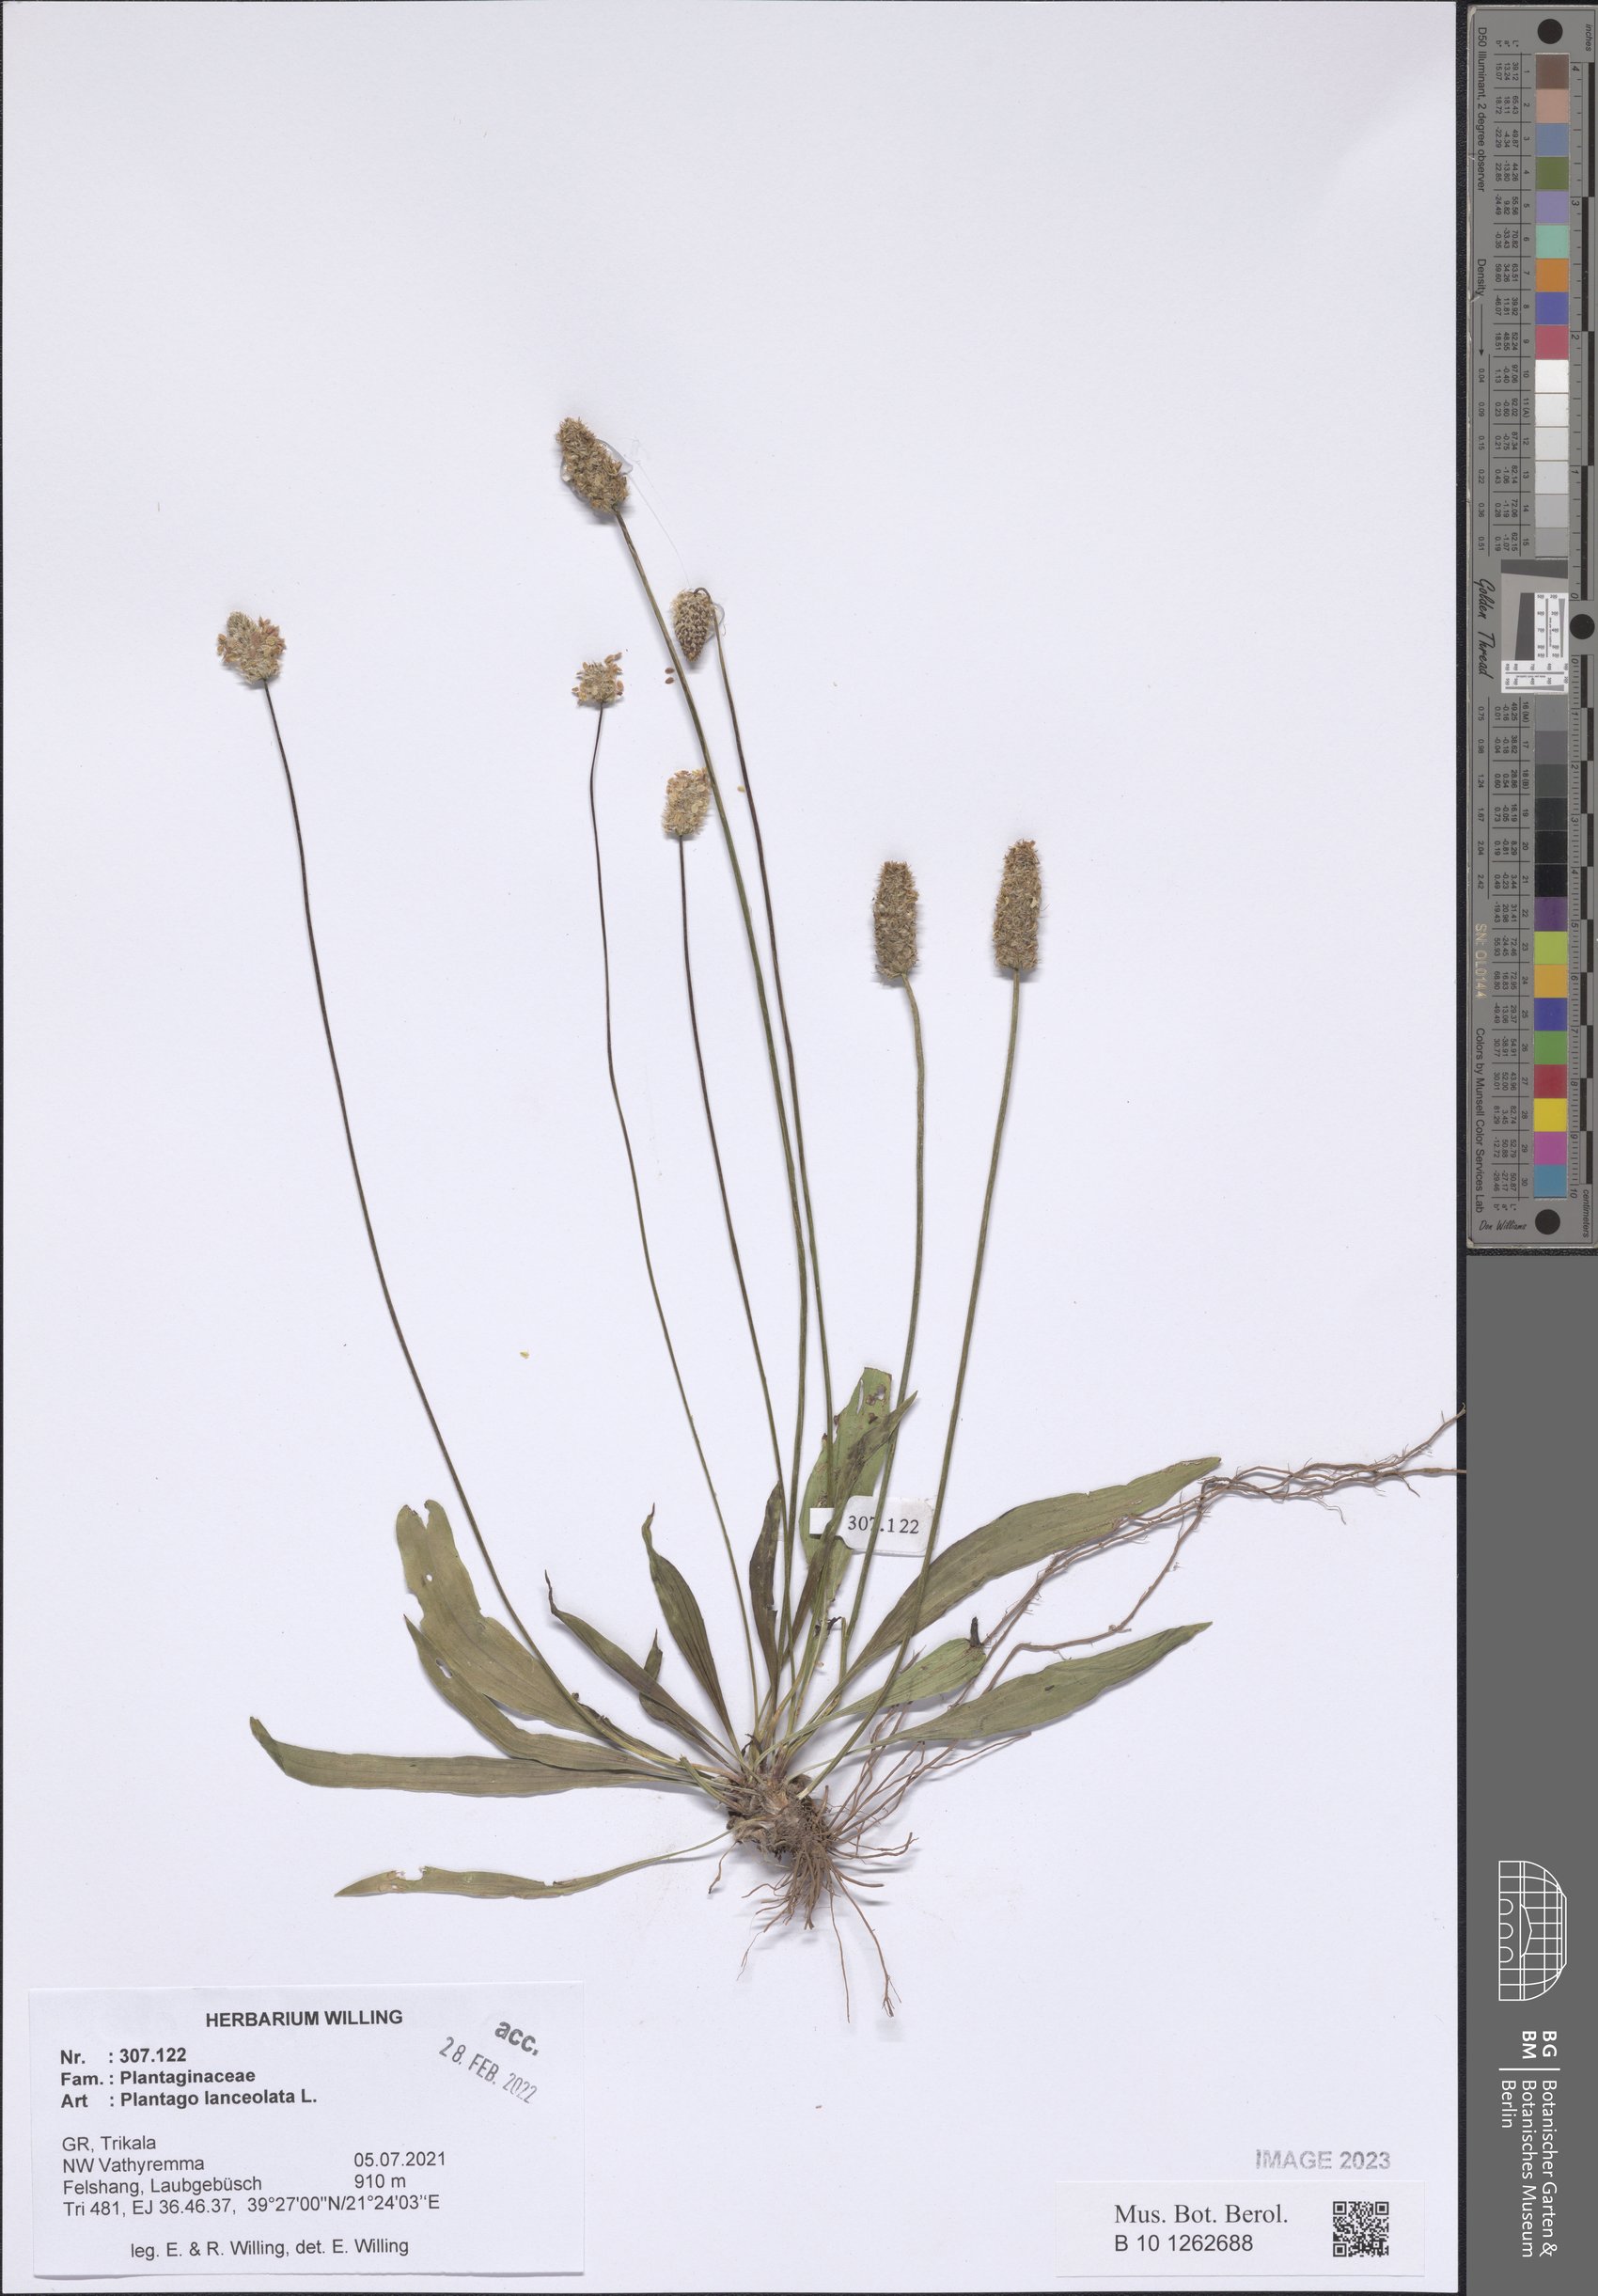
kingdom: Plantae
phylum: Tracheophyta
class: Magnoliopsida
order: Lamiales
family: Plantaginaceae
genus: Plantago
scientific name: Plantago lanceolata
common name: Ribwort plantain
